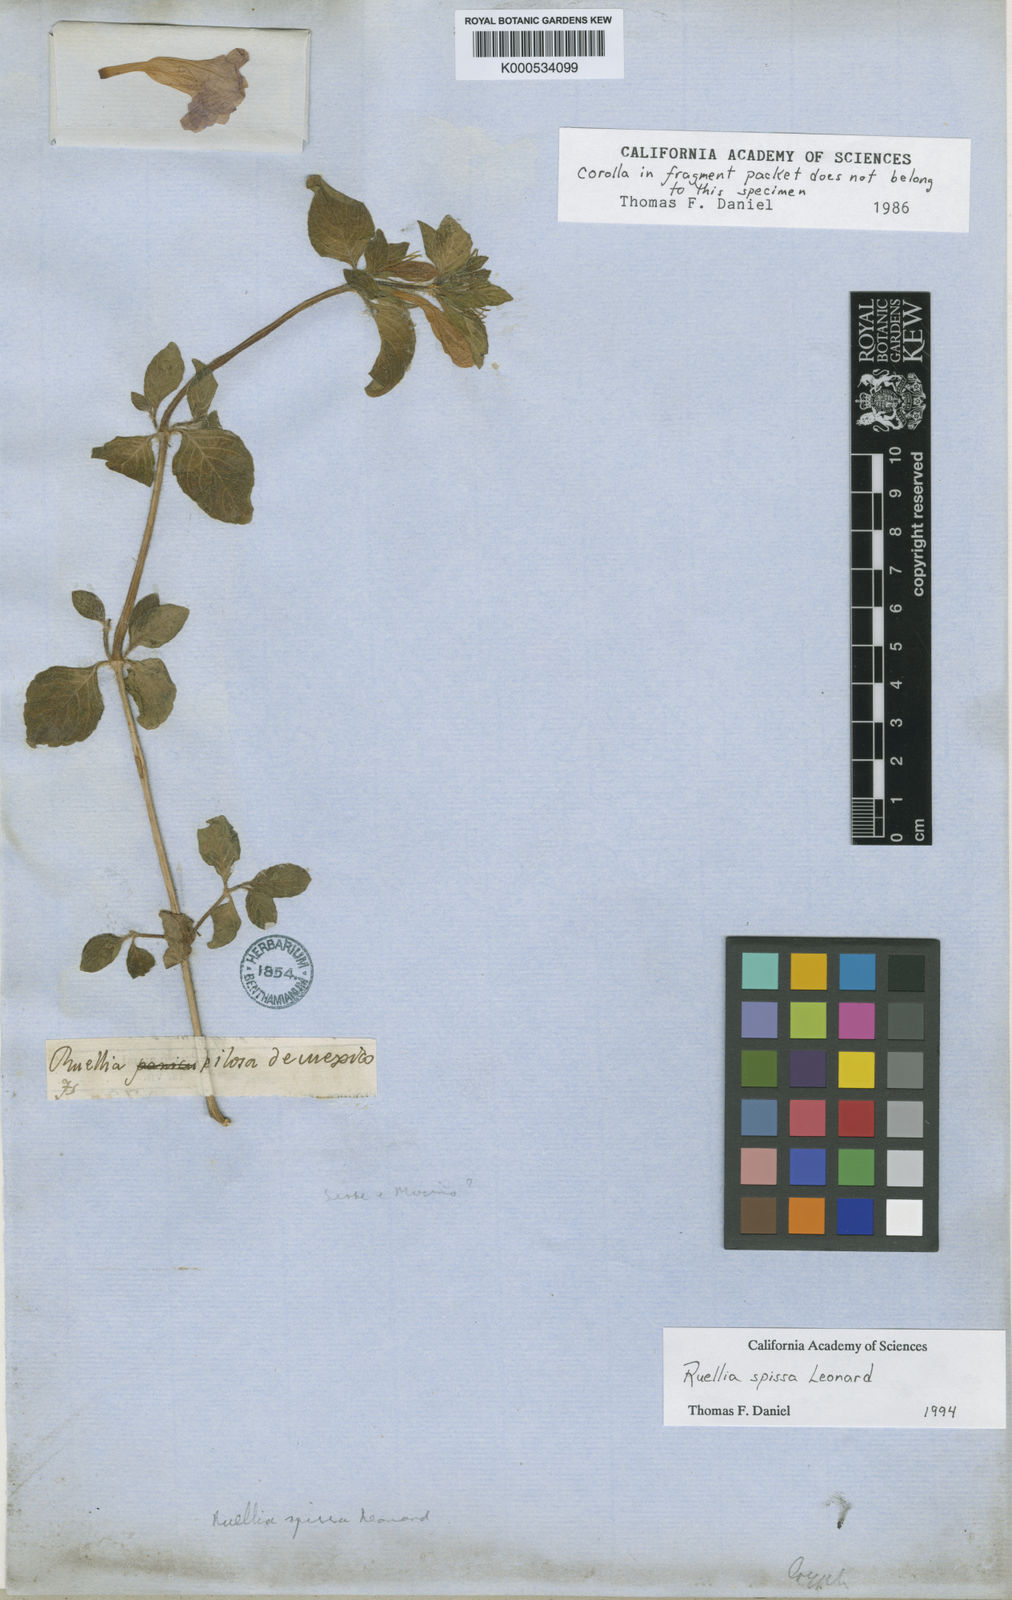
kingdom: Plantae
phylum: Tracheophyta
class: Magnoliopsida
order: Lamiales
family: Acanthaceae
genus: Ruellia
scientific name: Ruellia spissa
